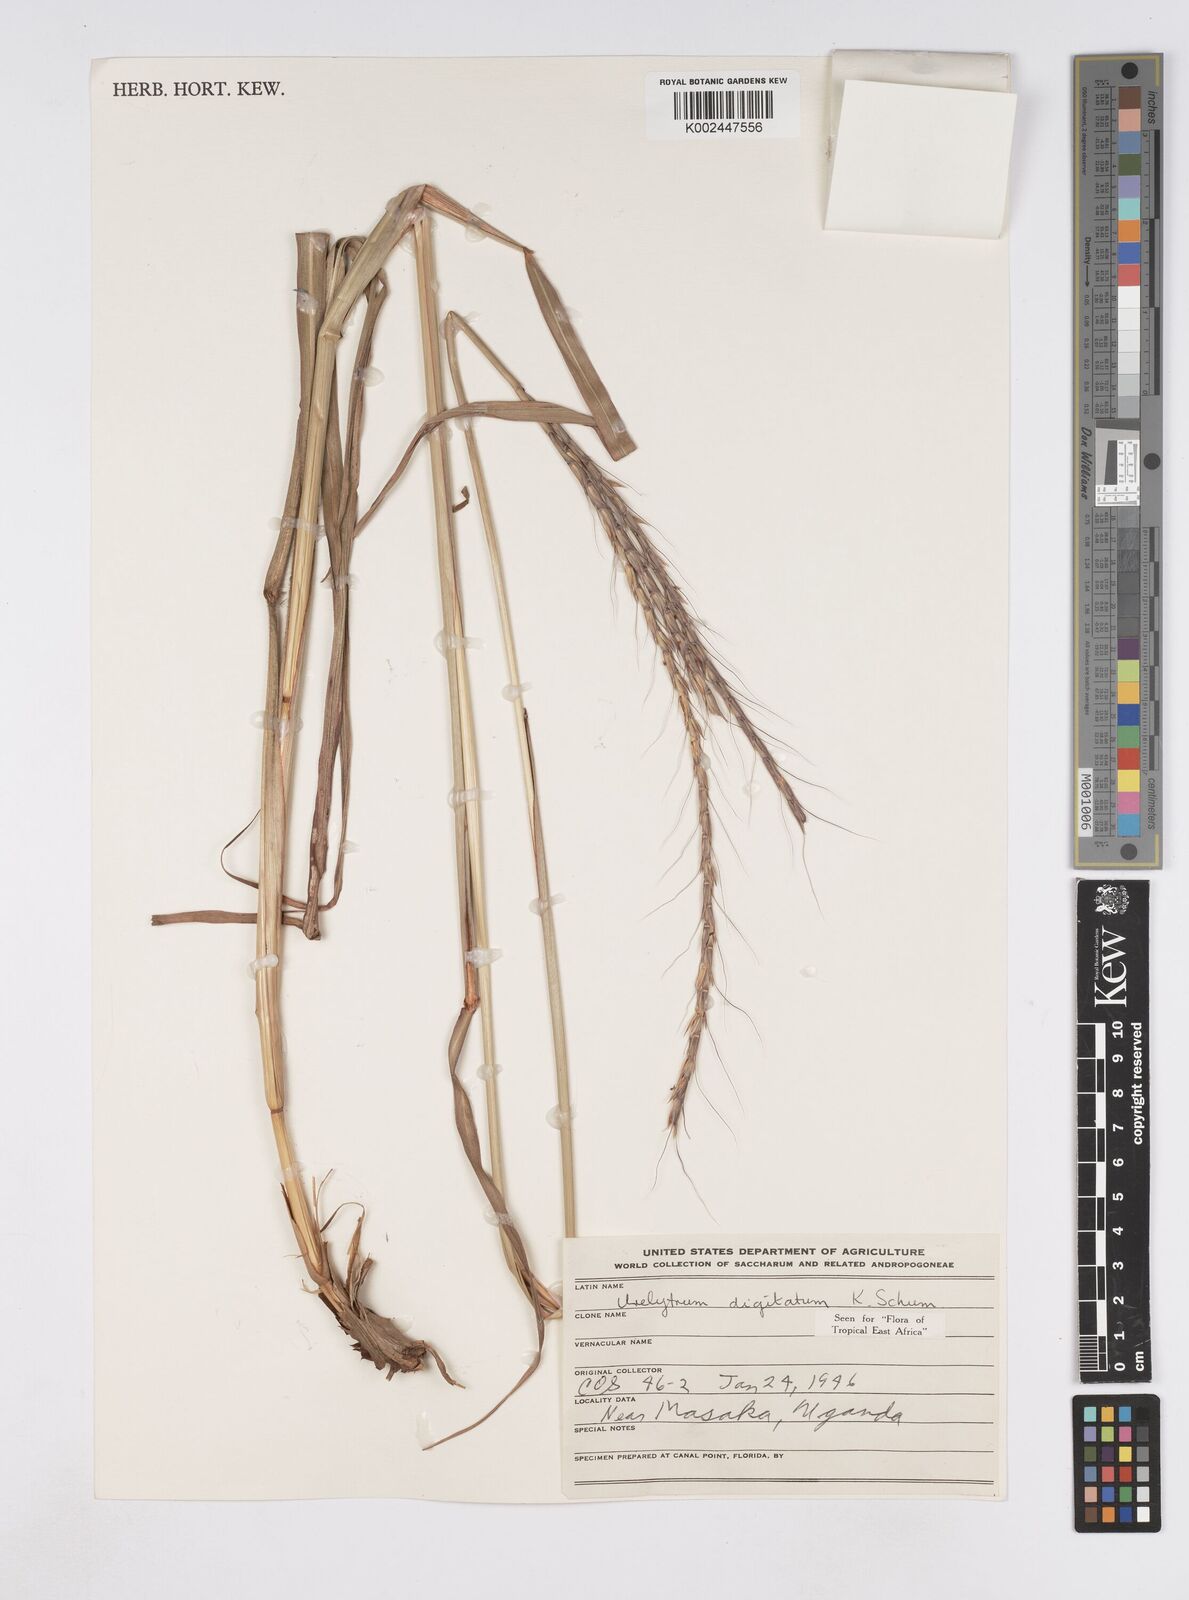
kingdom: Plantae
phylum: Tracheophyta
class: Liliopsida
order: Poales
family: Poaceae
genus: Urelytrum
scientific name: Urelytrum digitatum
